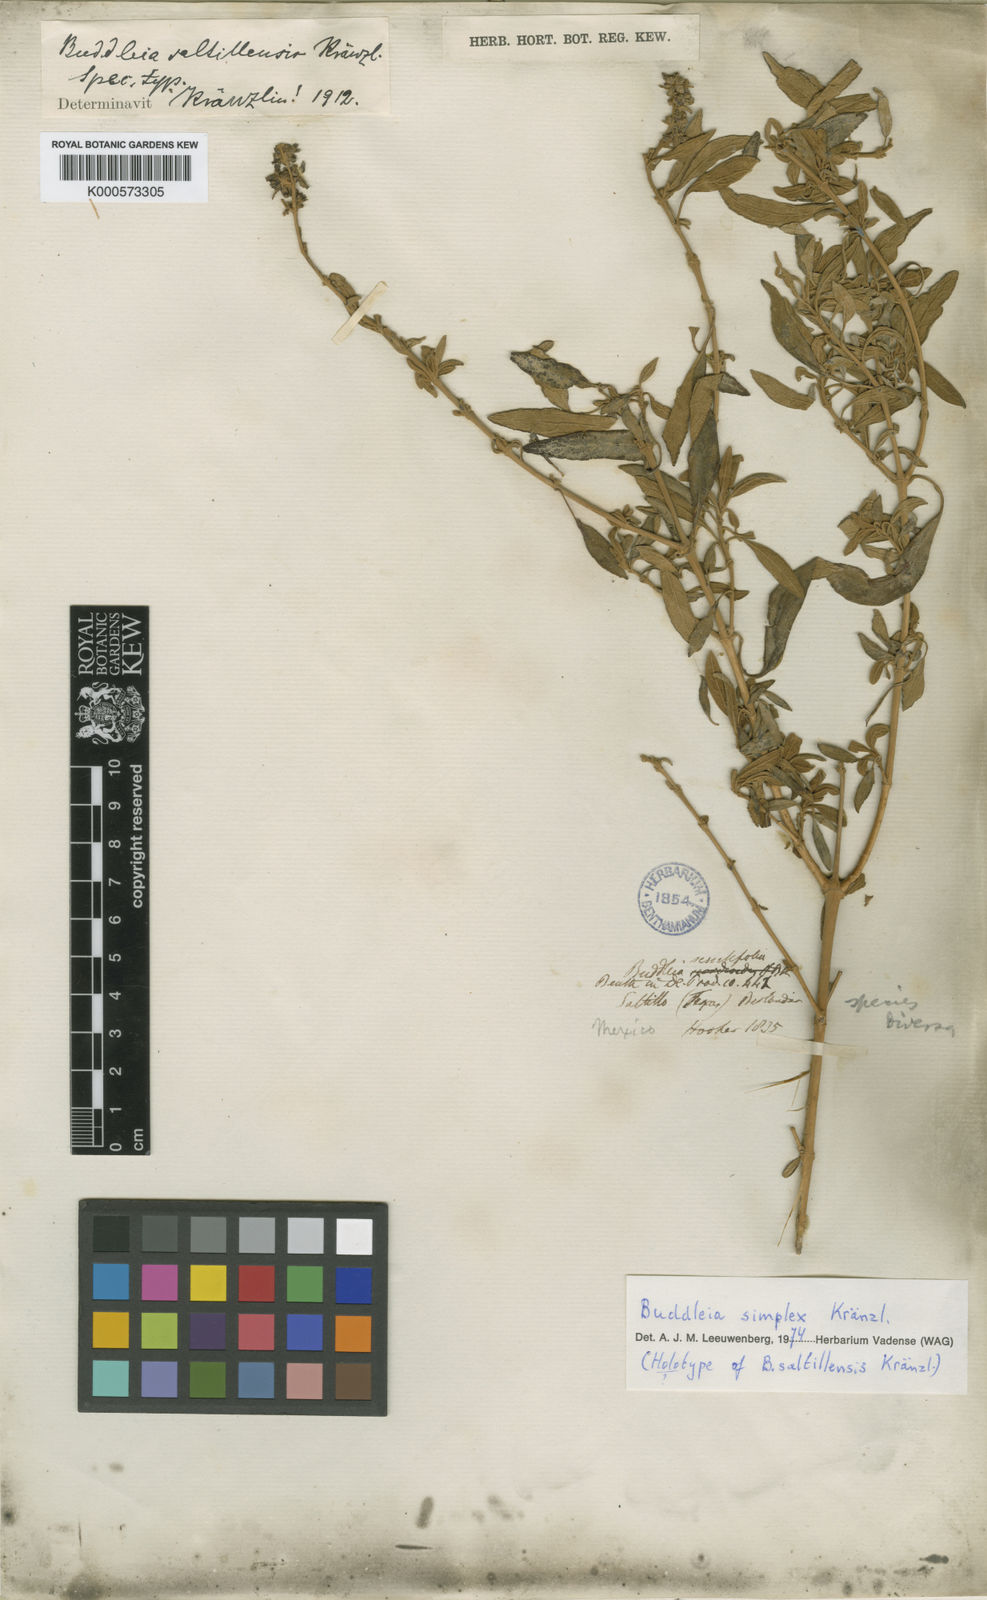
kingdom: Plantae
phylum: Tracheophyta
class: Magnoliopsida
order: Lamiales
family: Scrophulariaceae
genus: Buddleja
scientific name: Buddleja marrubiifolia
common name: Woolly butterfly-bush
